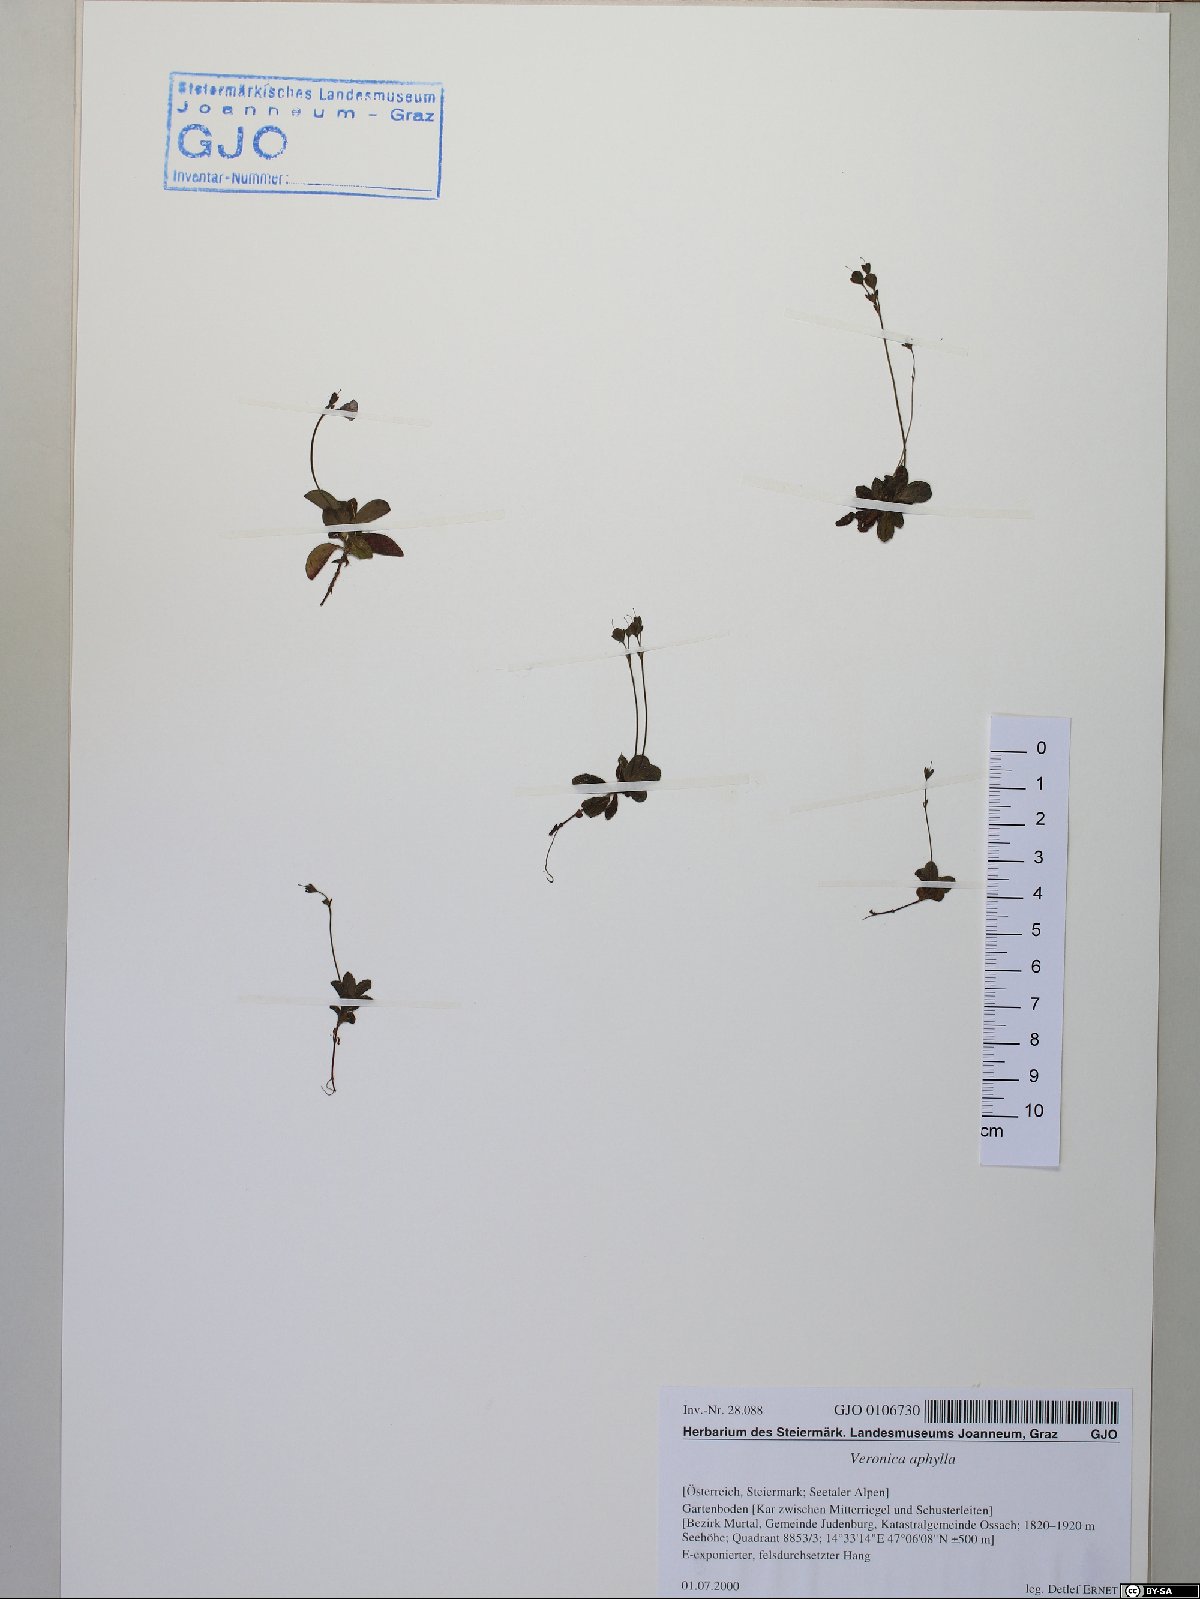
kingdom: Plantae
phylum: Tracheophyta
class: Magnoliopsida
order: Lamiales
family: Plantaginaceae
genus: Veronica
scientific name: Veronica aphylla
